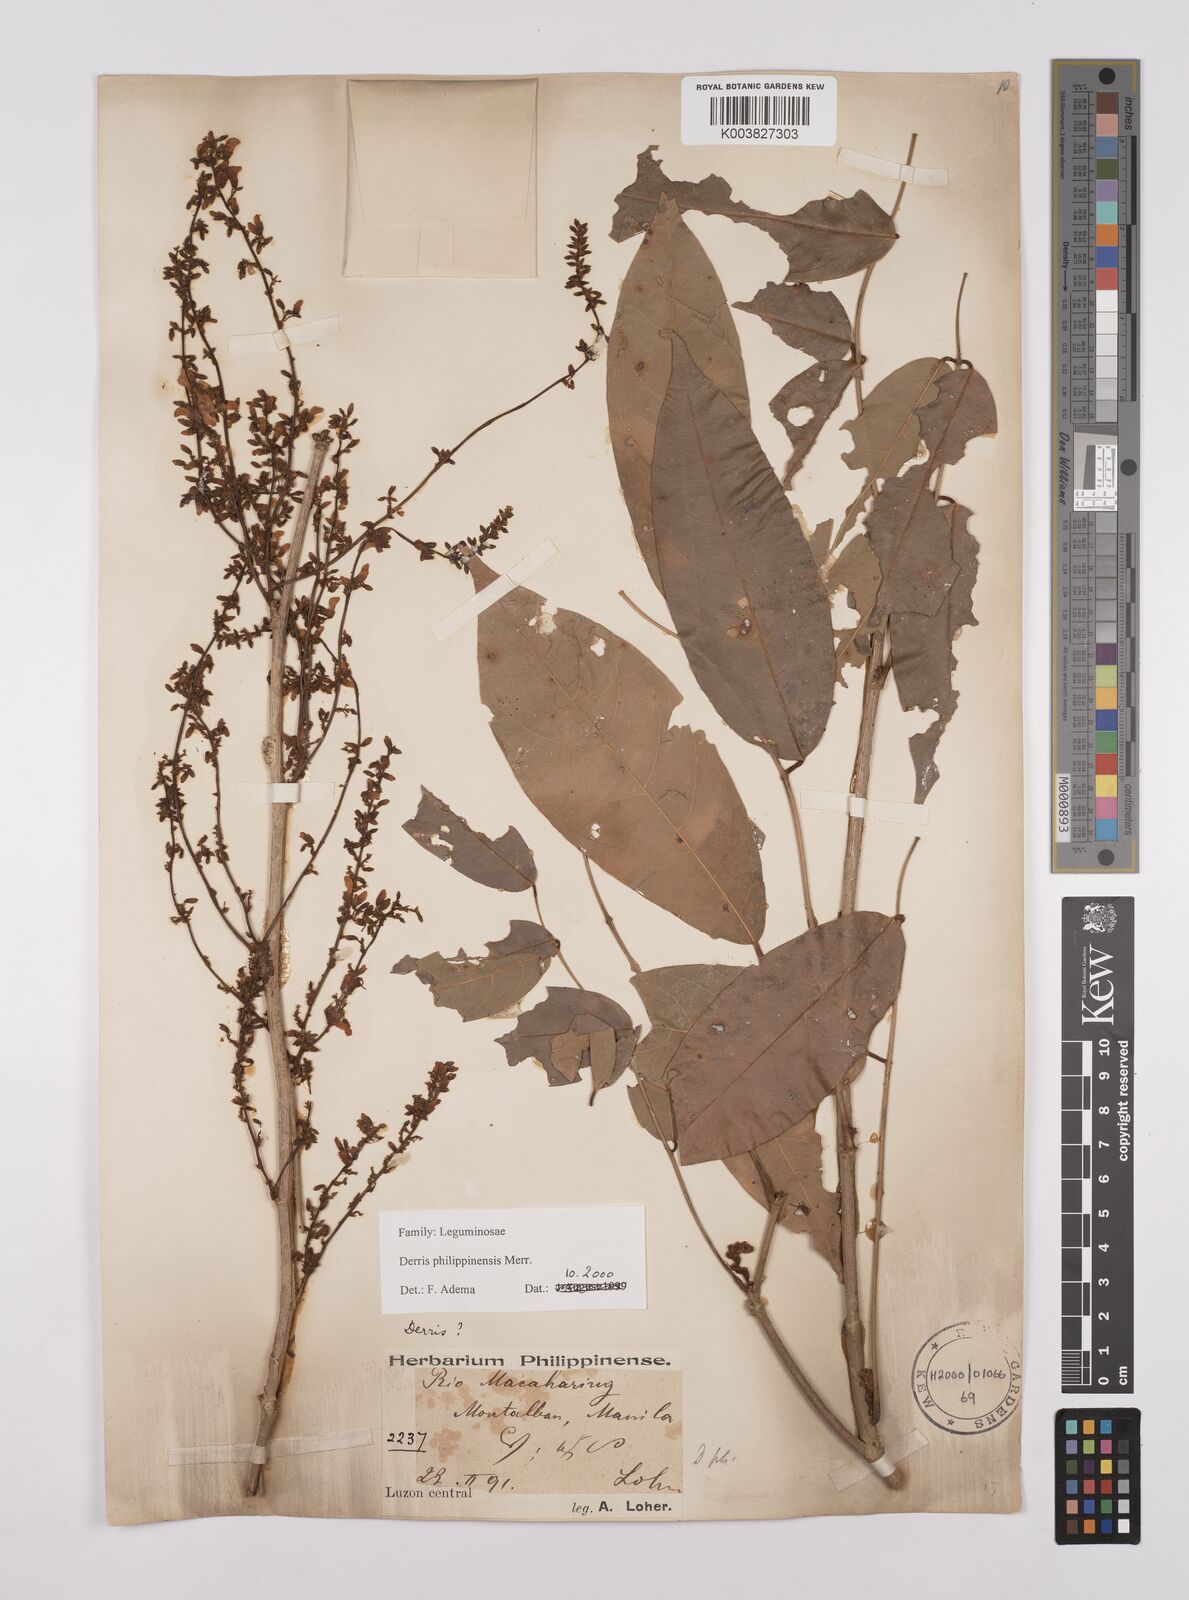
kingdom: Plantae
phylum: Tracheophyta
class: Magnoliopsida
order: Fabales
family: Fabaceae
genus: Brachypterum
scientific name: Brachypterum philippinense
